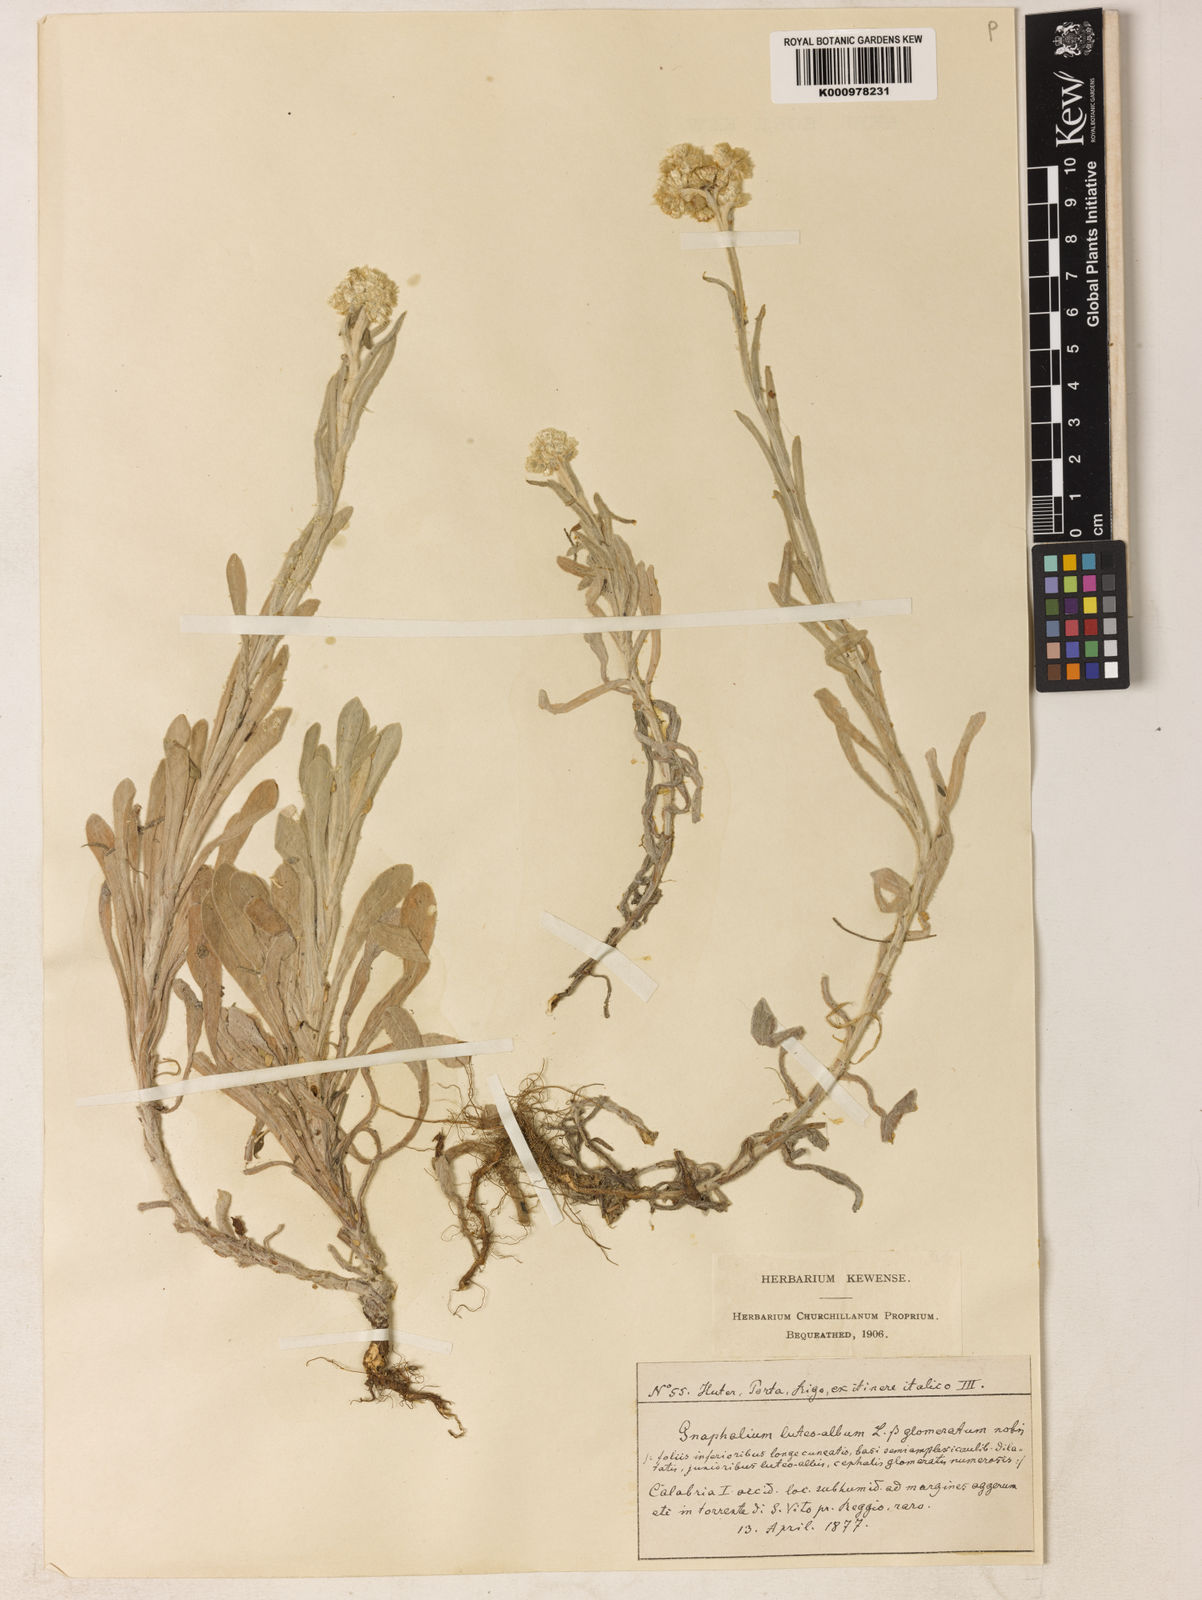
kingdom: Plantae
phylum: Tracheophyta
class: Magnoliopsida
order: Asterales
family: Asteraceae
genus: Helichrysum
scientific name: Helichrysum luteoalbum
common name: Daisy
